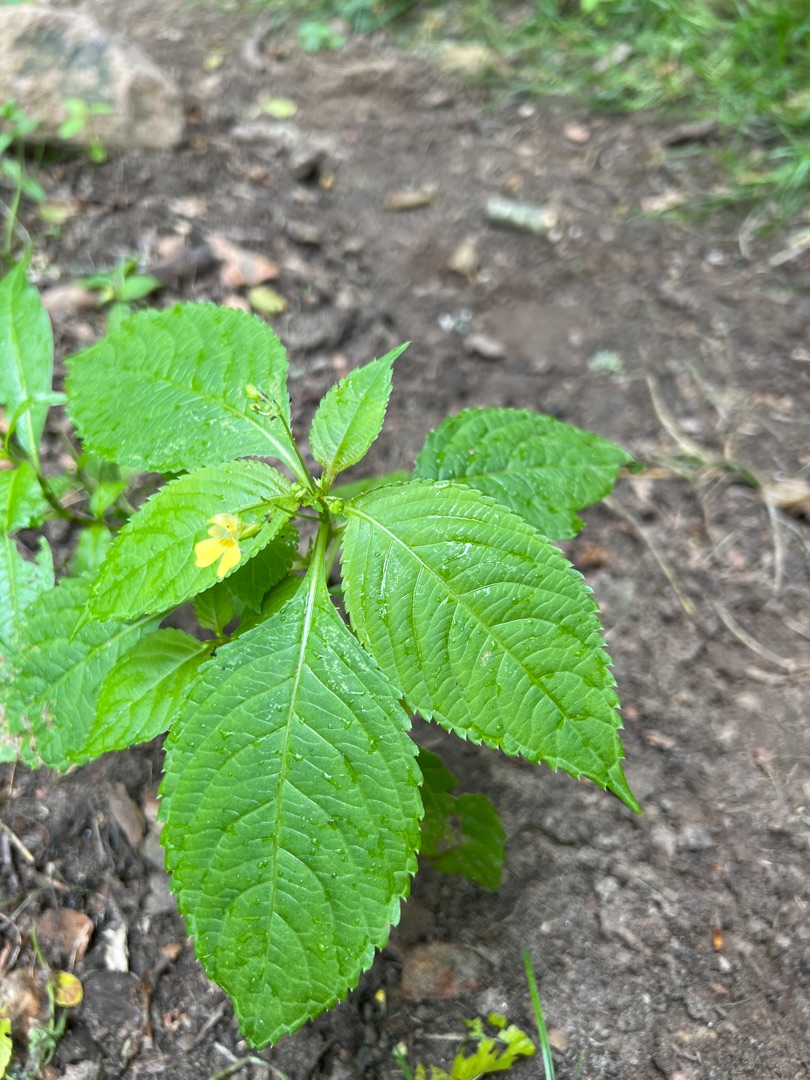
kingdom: Plantae
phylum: Tracheophyta
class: Magnoliopsida
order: Ericales
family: Balsaminaceae
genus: Impatiens
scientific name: Impatiens parviflora
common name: Småblomstret balsamin
